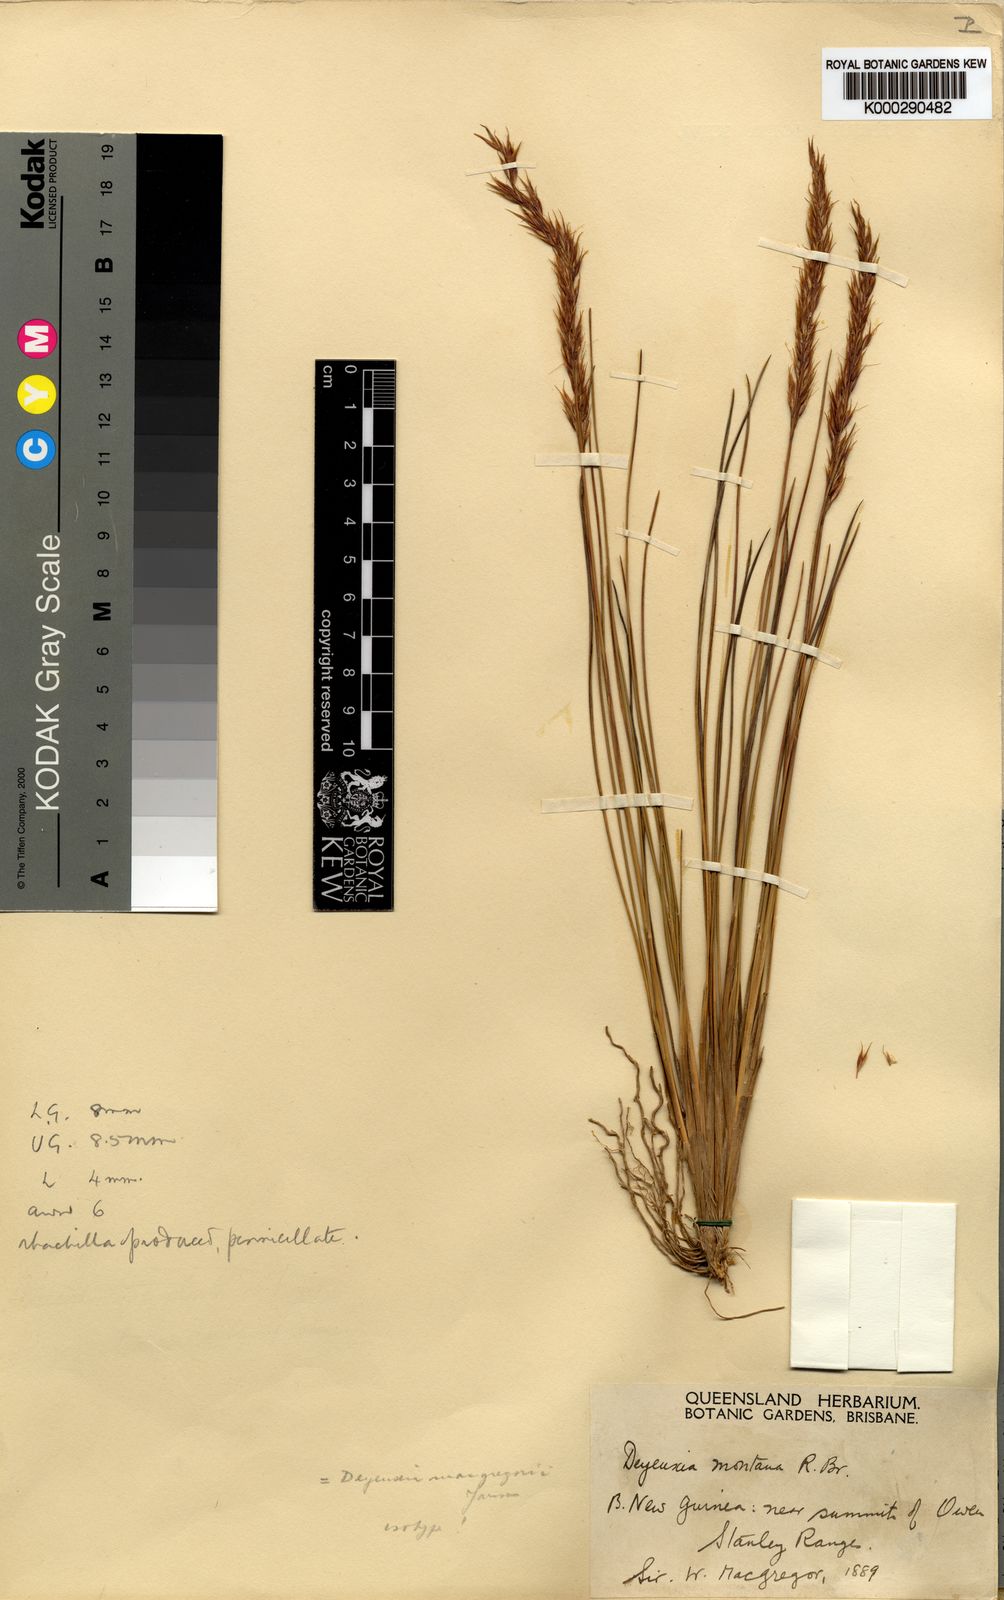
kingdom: Plantae
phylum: Tracheophyta
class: Liliopsida
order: Poales
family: Poaceae
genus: Calamagrostis
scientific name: Calamagrostis sclerophylla
